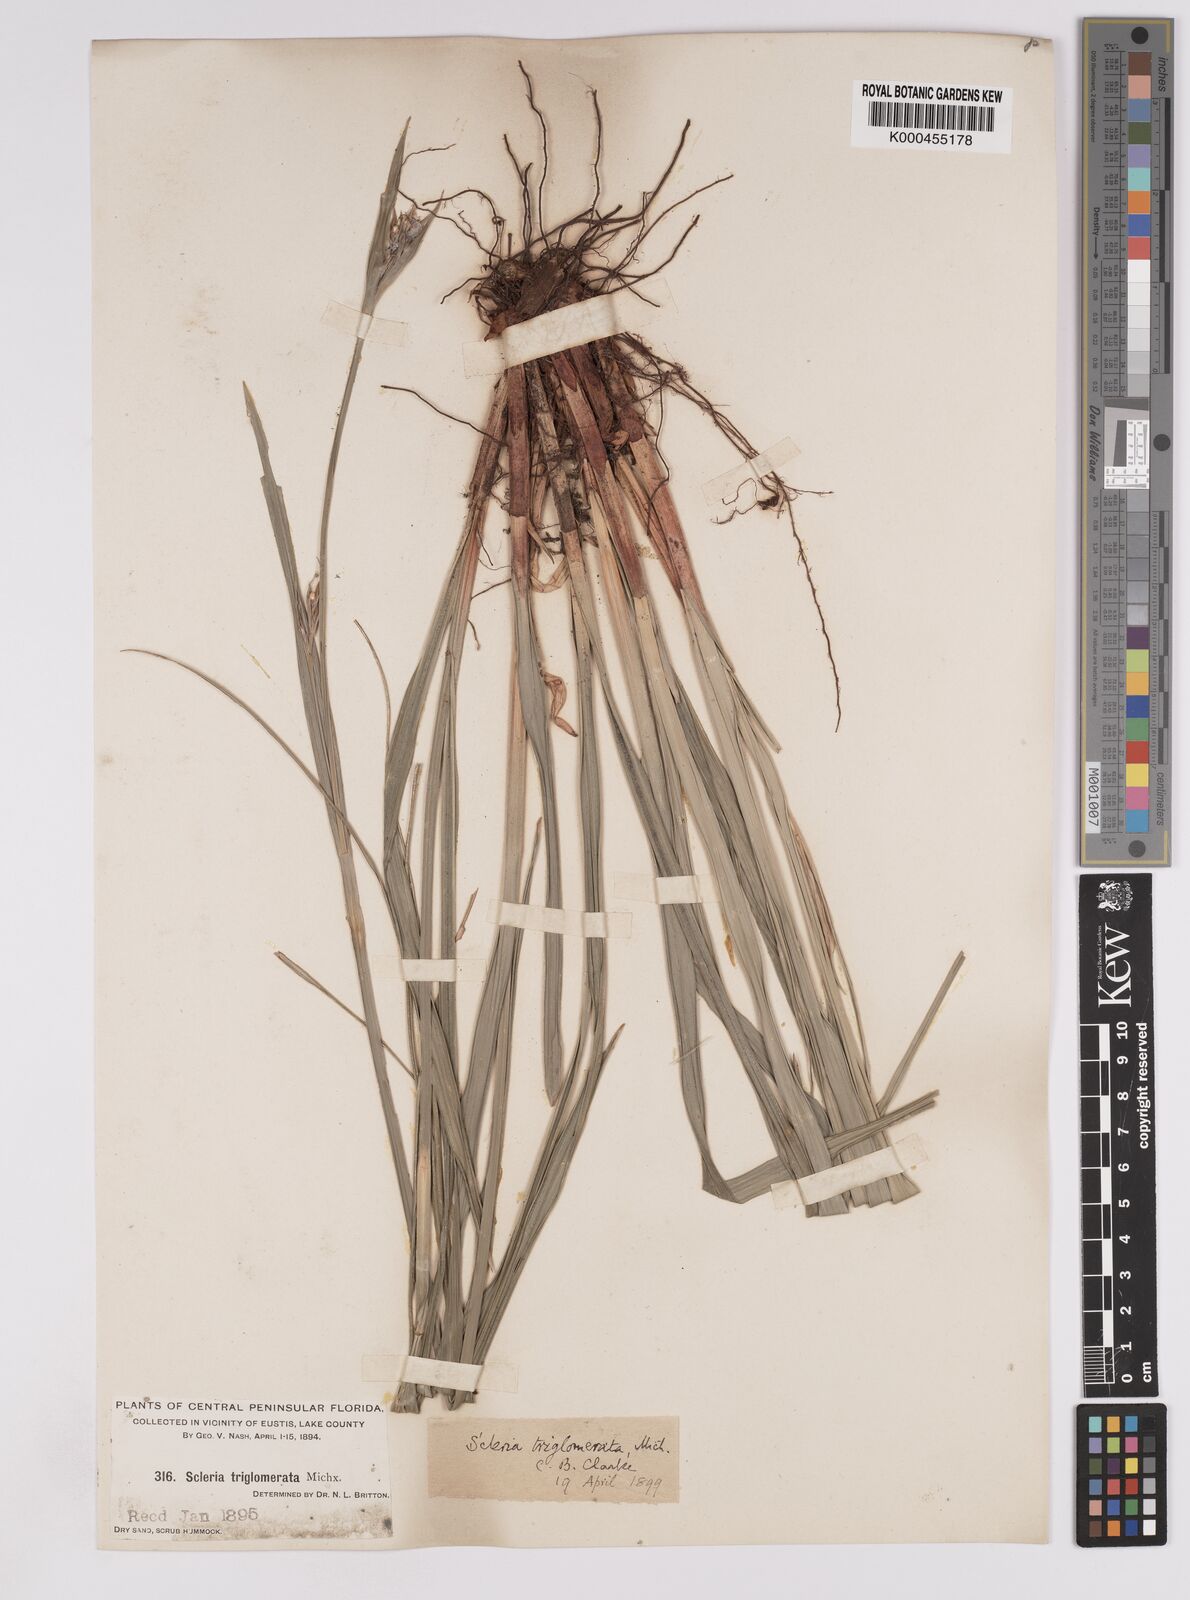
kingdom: Plantae
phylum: Tracheophyta
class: Liliopsida
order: Poales
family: Cyperaceae
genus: Scleria
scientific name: Scleria triglomerata
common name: Whip nutrush
